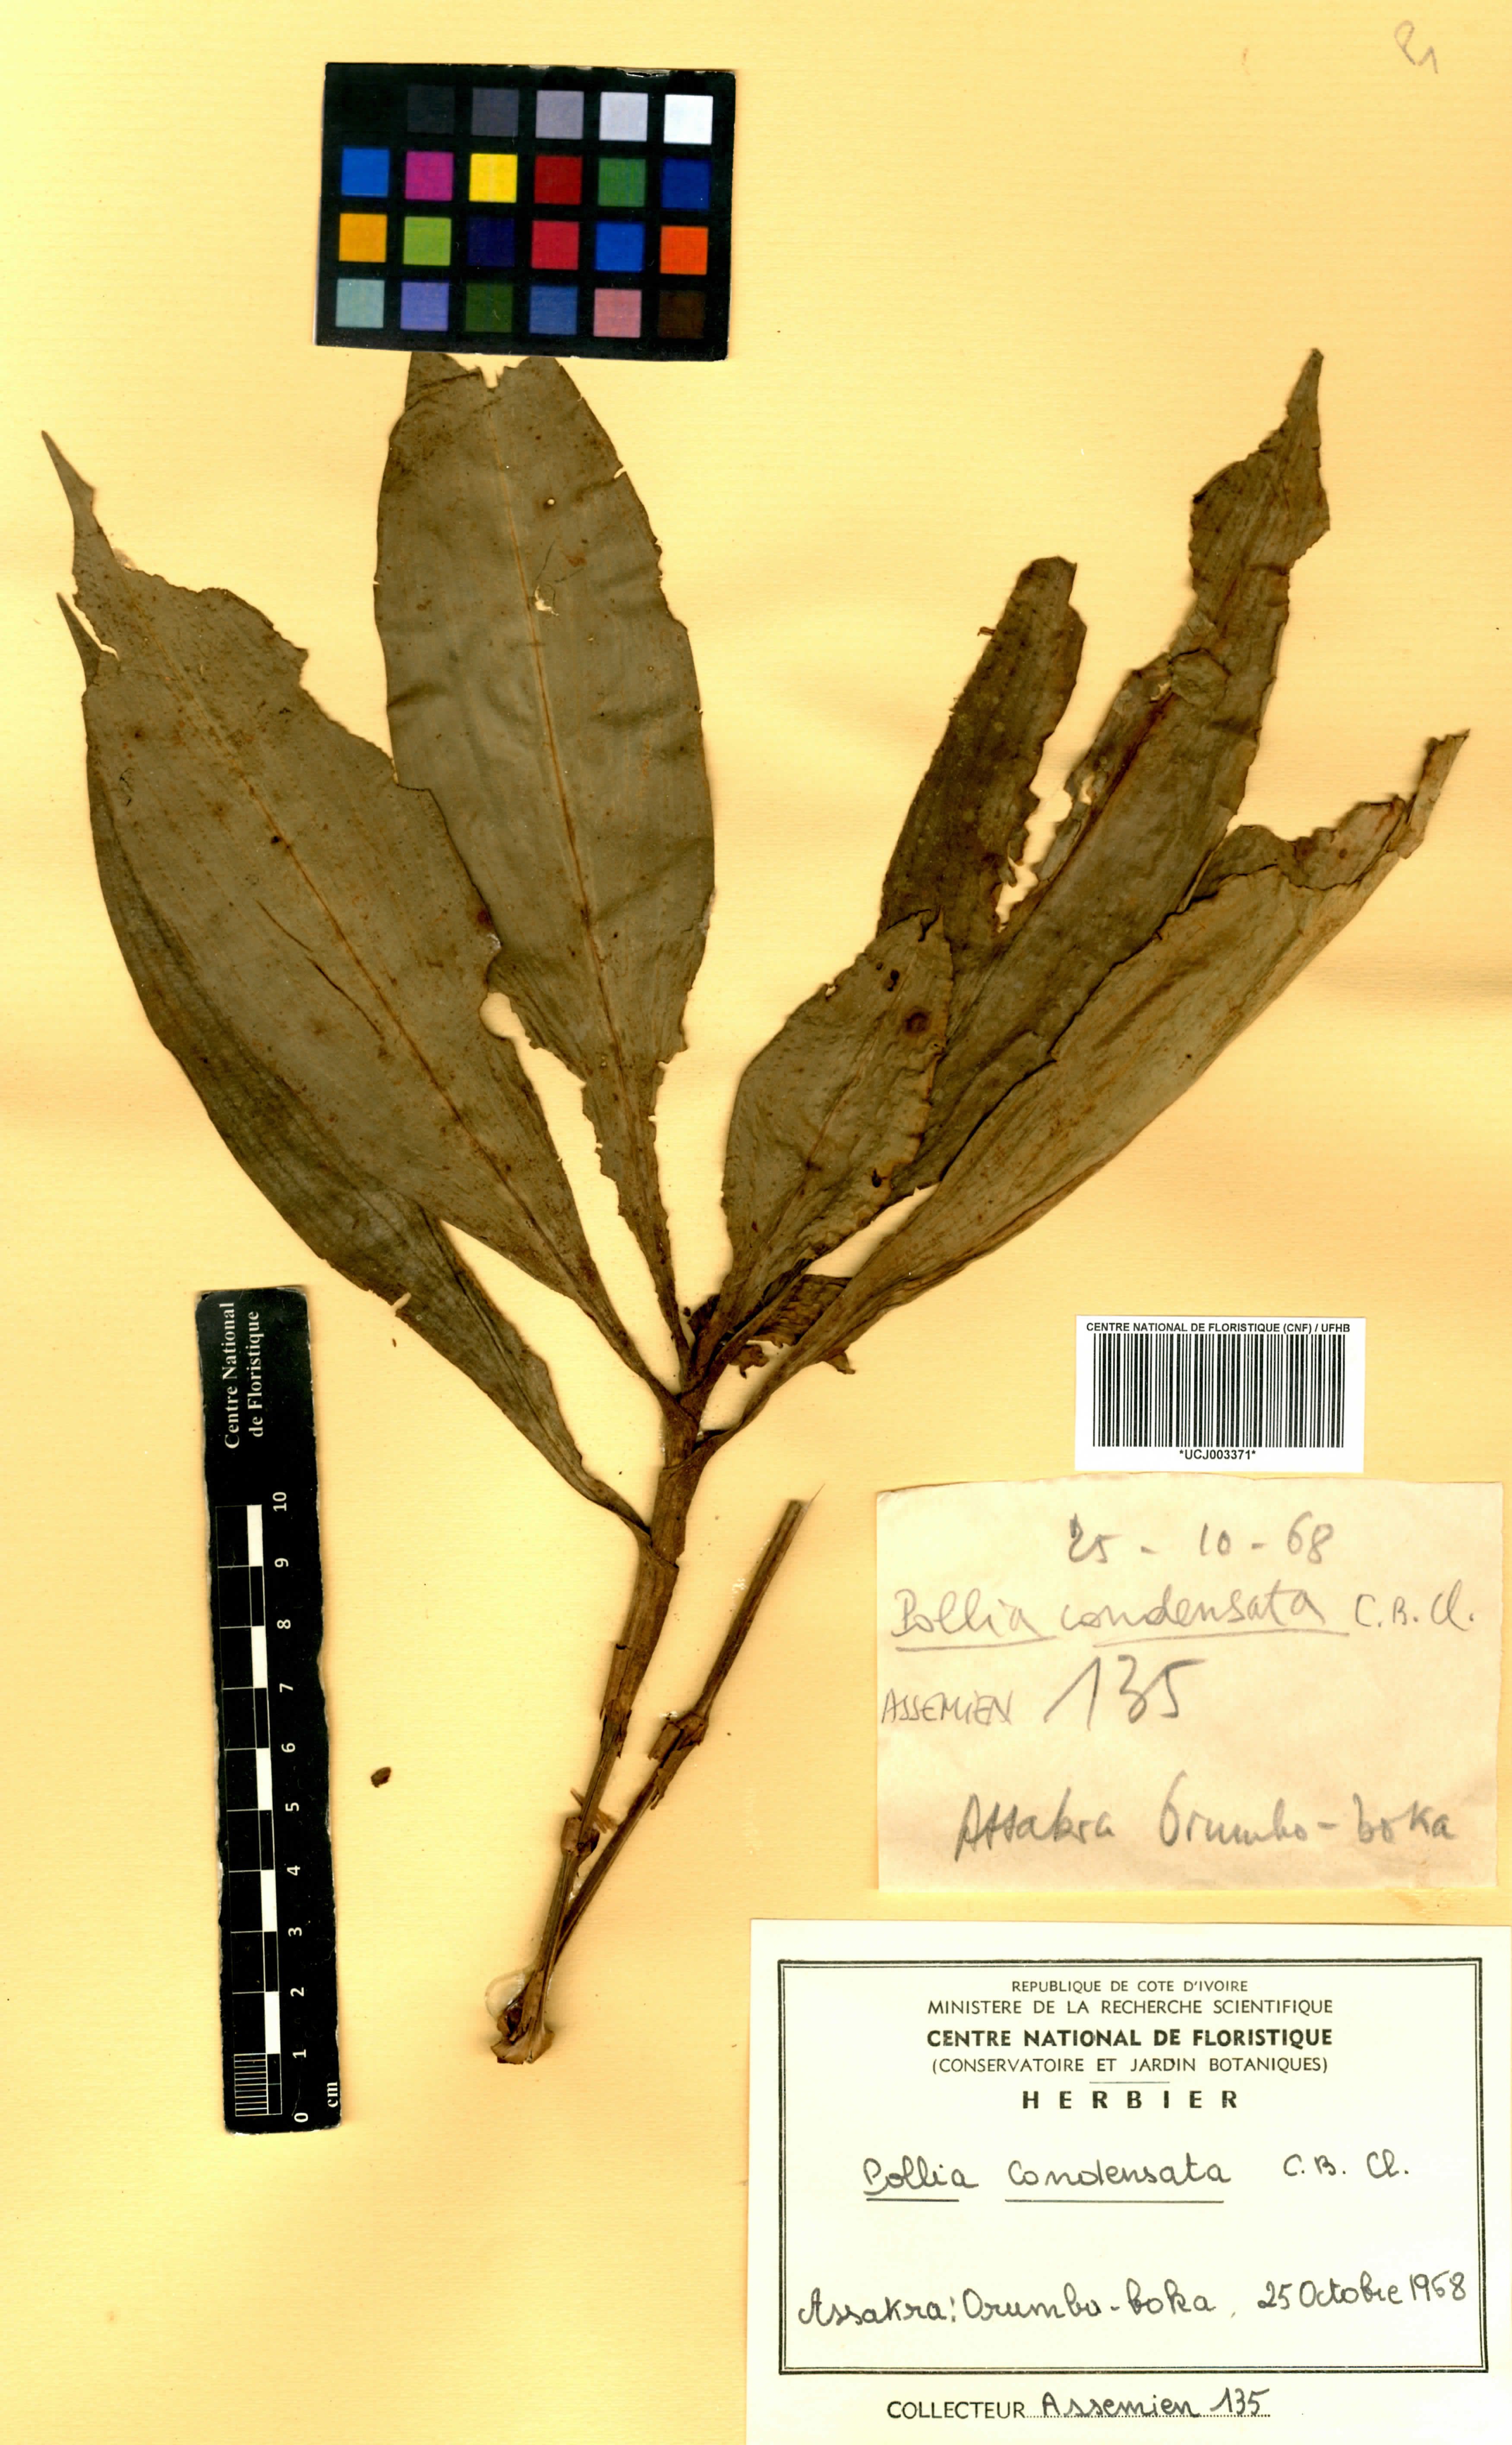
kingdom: Plantae
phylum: Tracheophyta
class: Liliopsida
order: Commelinales
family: Commelinaceae
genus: Pollia
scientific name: Pollia condensata
